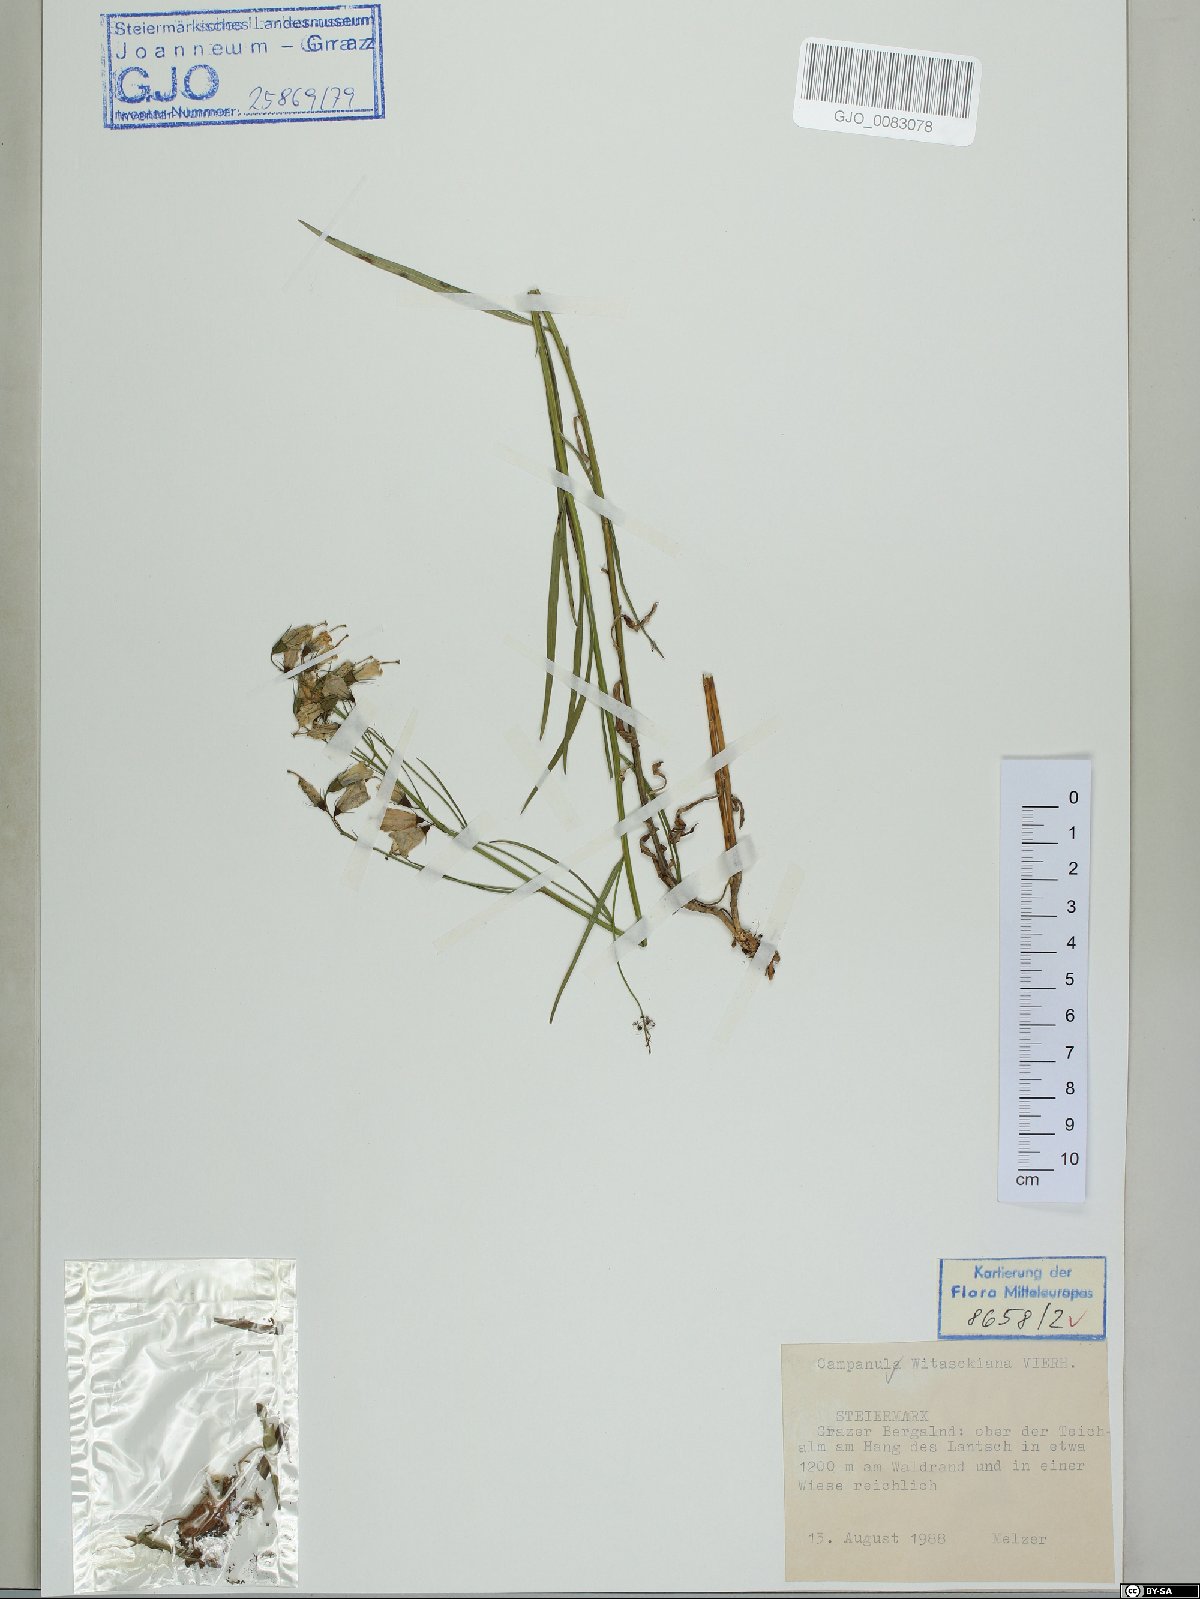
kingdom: Plantae
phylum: Tracheophyta
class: Magnoliopsida
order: Asterales
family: Campanulaceae
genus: Campanula
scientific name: Campanula witasekiana
